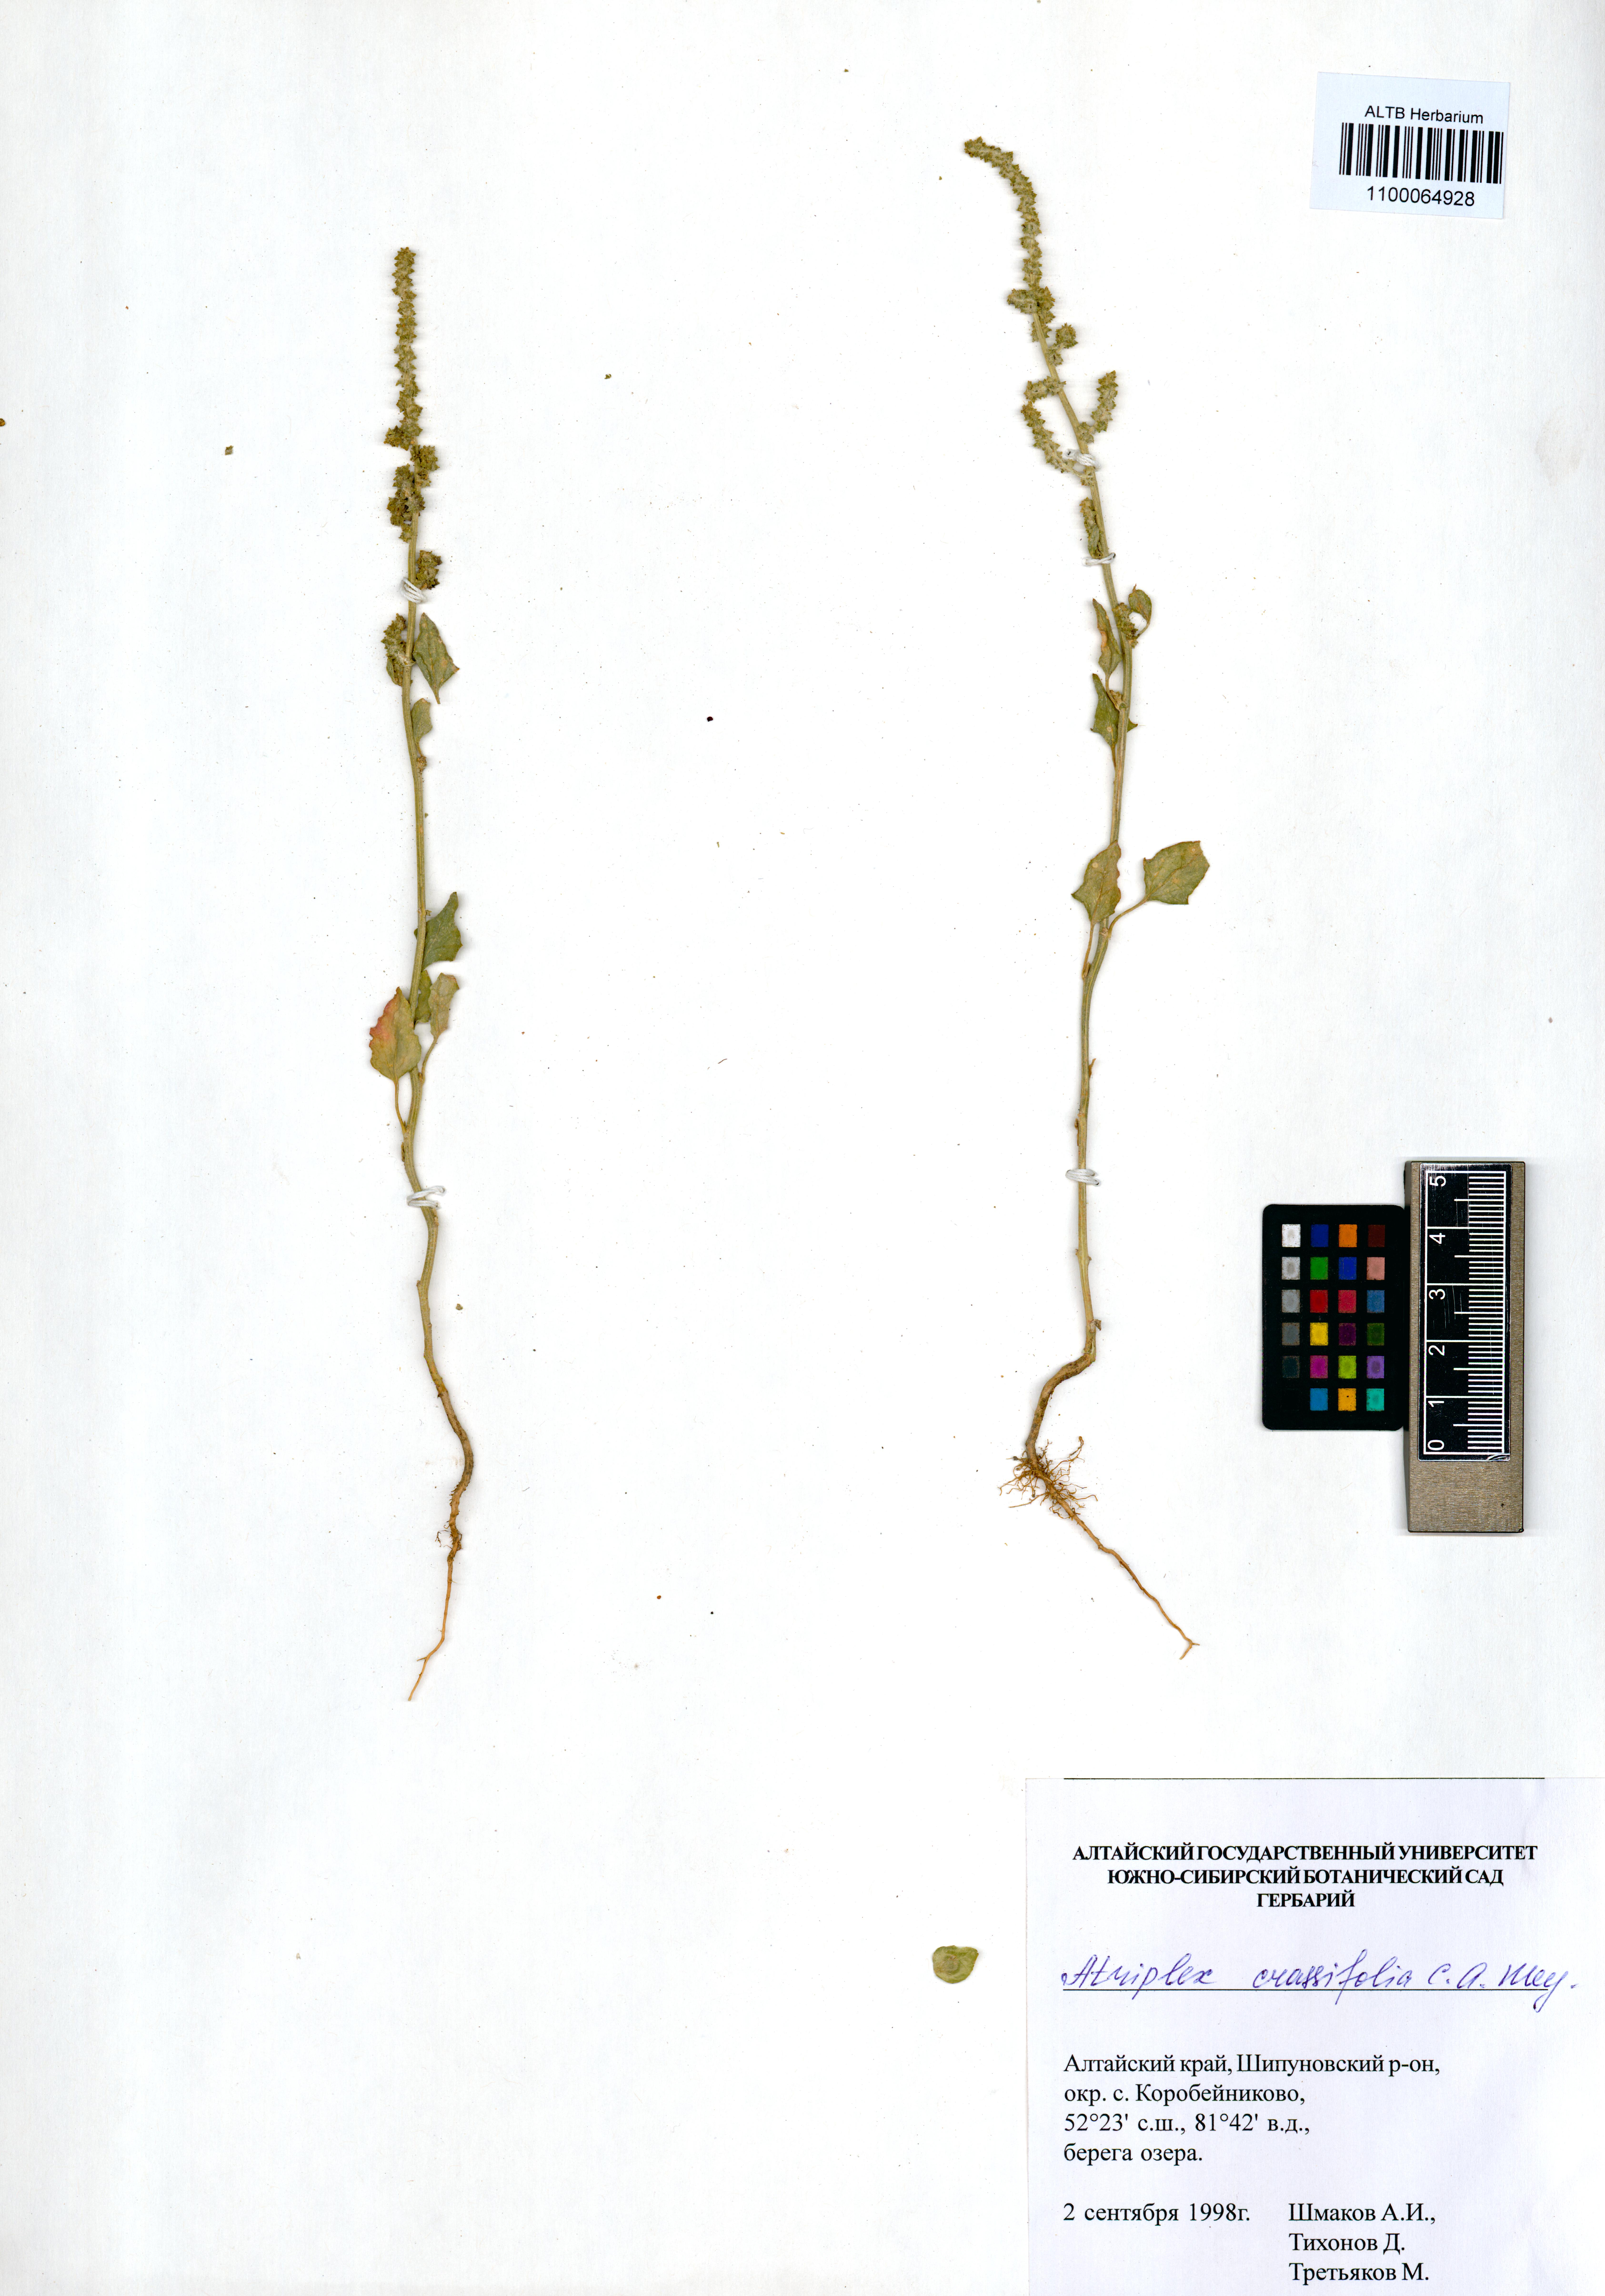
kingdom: Plantae
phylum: Tracheophyta
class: Magnoliopsida
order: Caryophyllales
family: Amaranthaceae
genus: Atriplex
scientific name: Atriplex crassifolia
